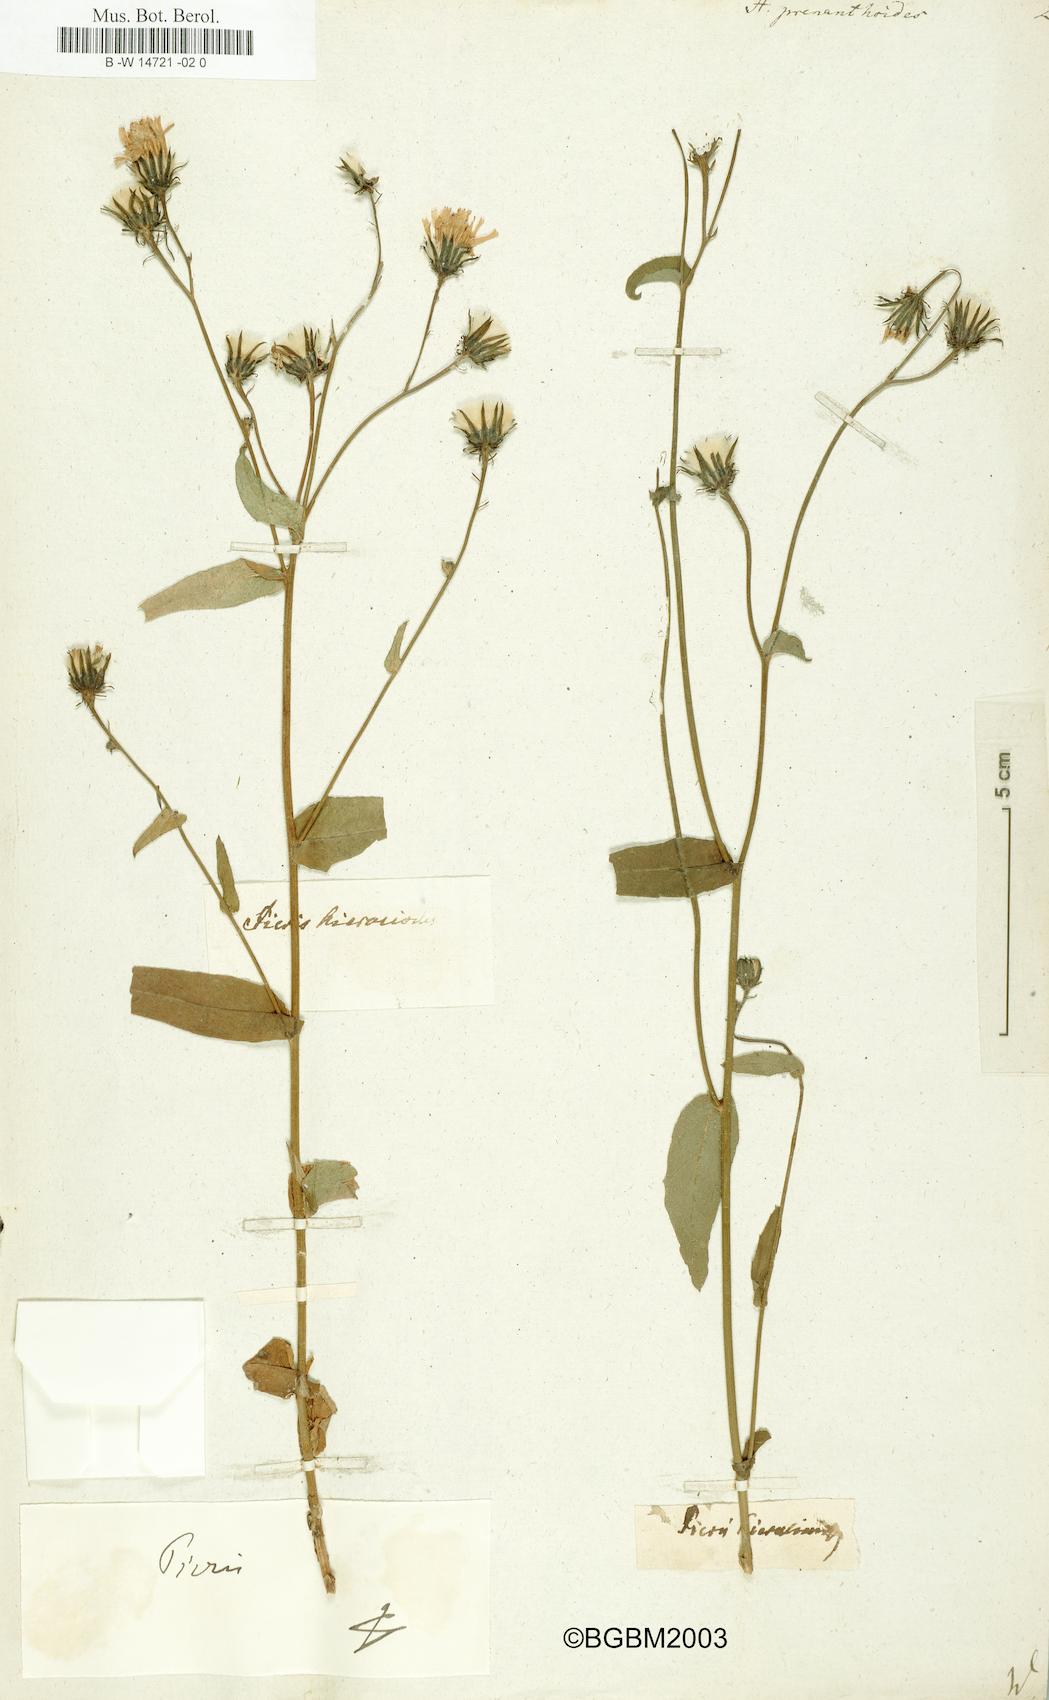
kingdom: Plantae
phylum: Tracheophyta
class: Magnoliopsida
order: Asterales
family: Asteraceae
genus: Hieracium
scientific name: Hieracium prenanthoides
